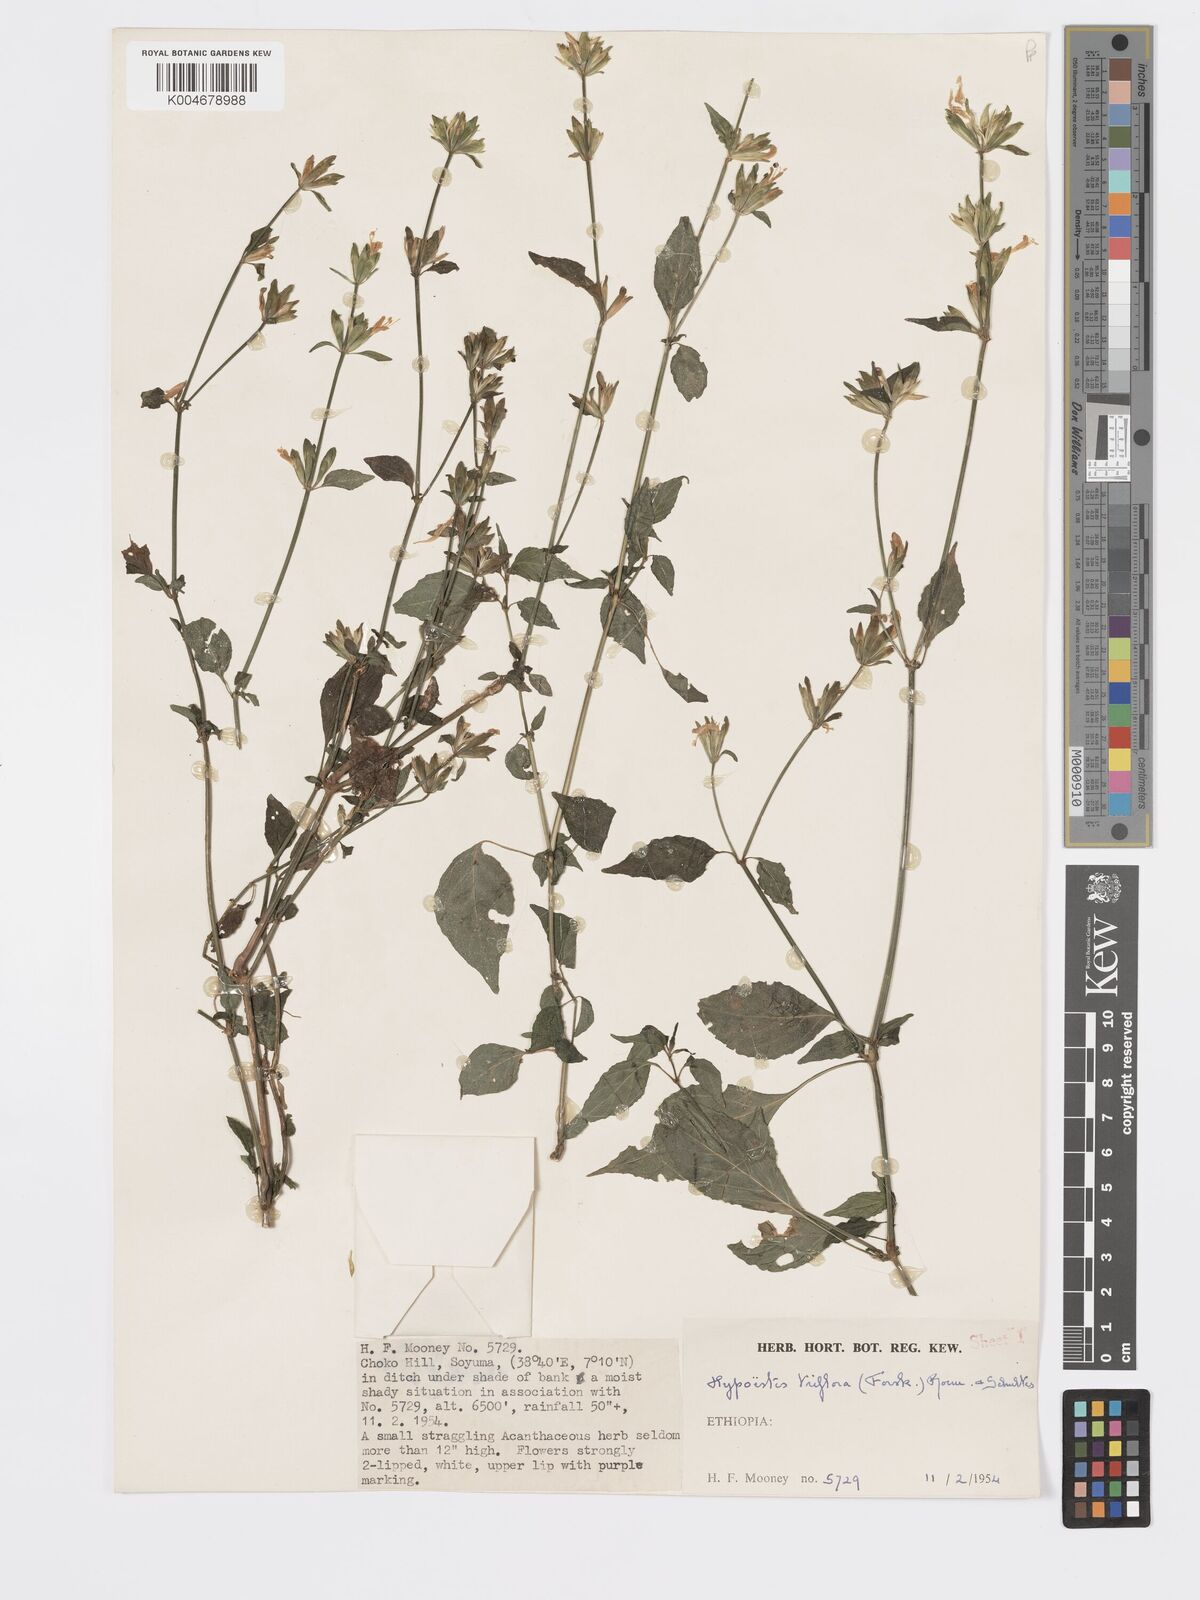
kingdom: Plantae
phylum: Tracheophyta
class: Magnoliopsida
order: Lamiales
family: Acanthaceae
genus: Hypoestes
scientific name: Hypoestes triflora
